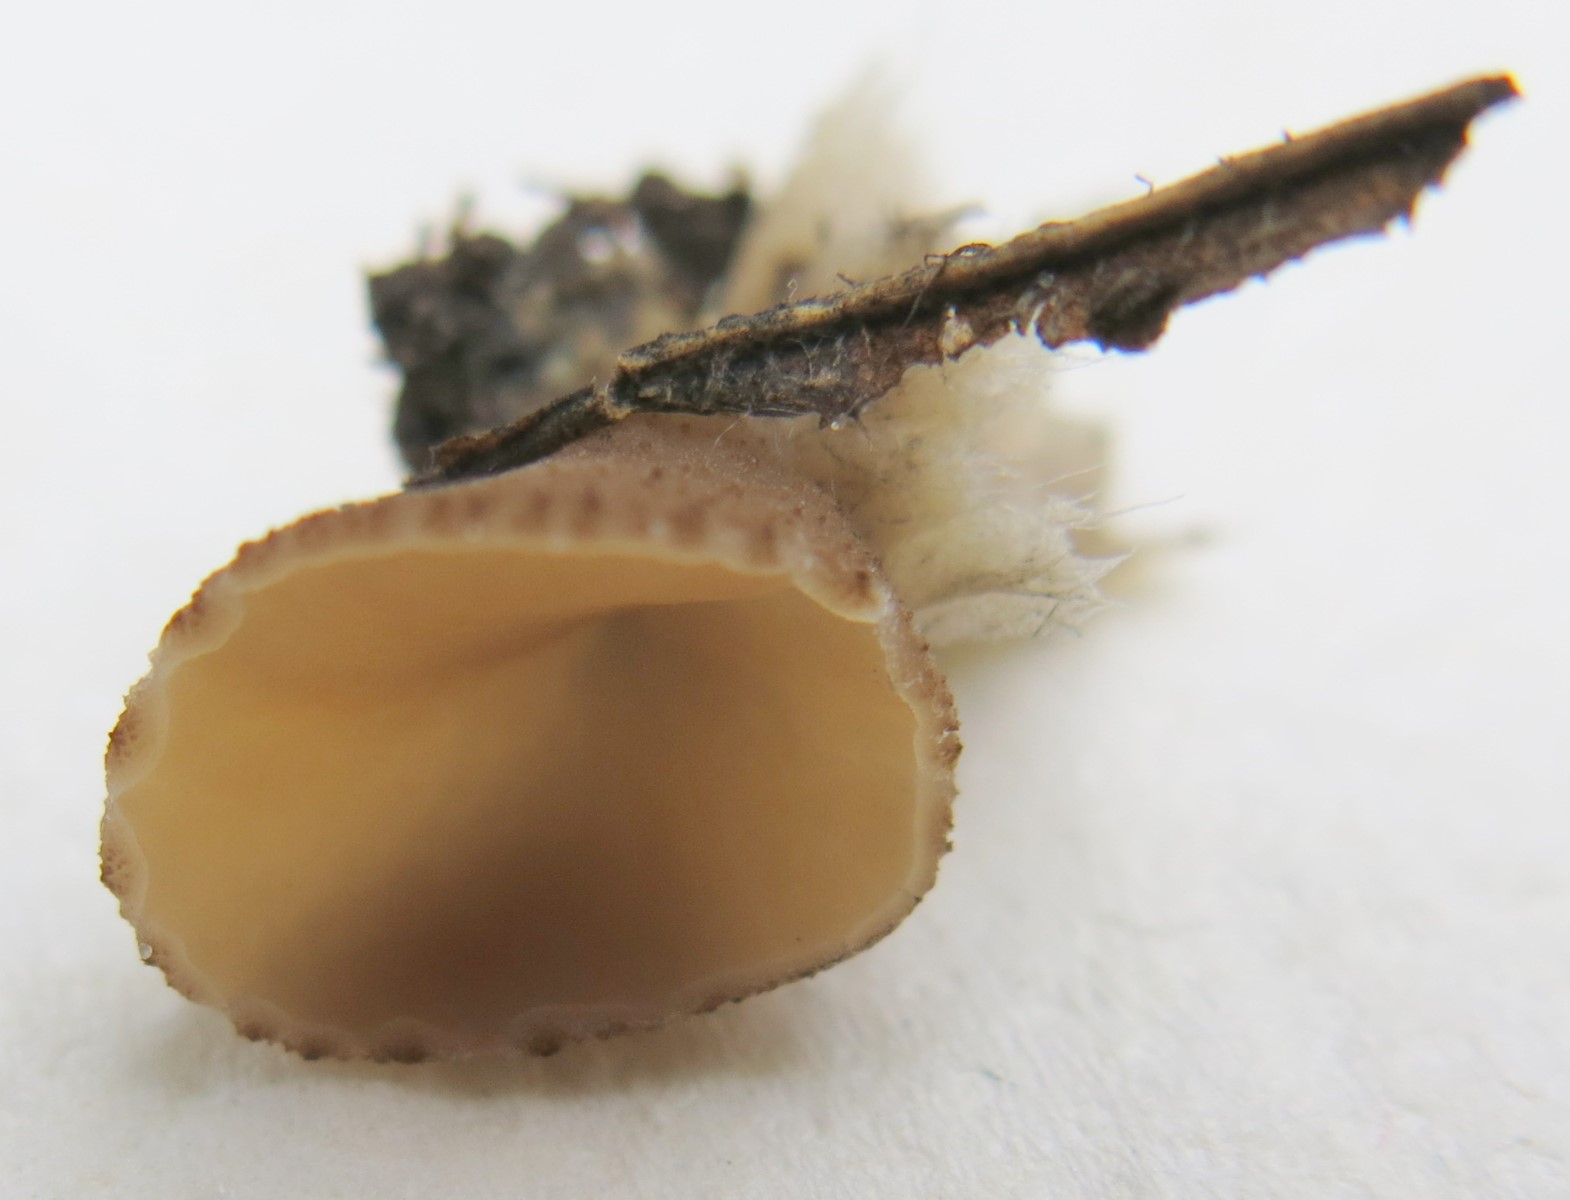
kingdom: Fungi
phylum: Ascomycota
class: Pezizomycetes
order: Pezizales
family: Pezizaceae
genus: Peziza
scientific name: Peziza fimeti
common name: møg-bægersvamp
